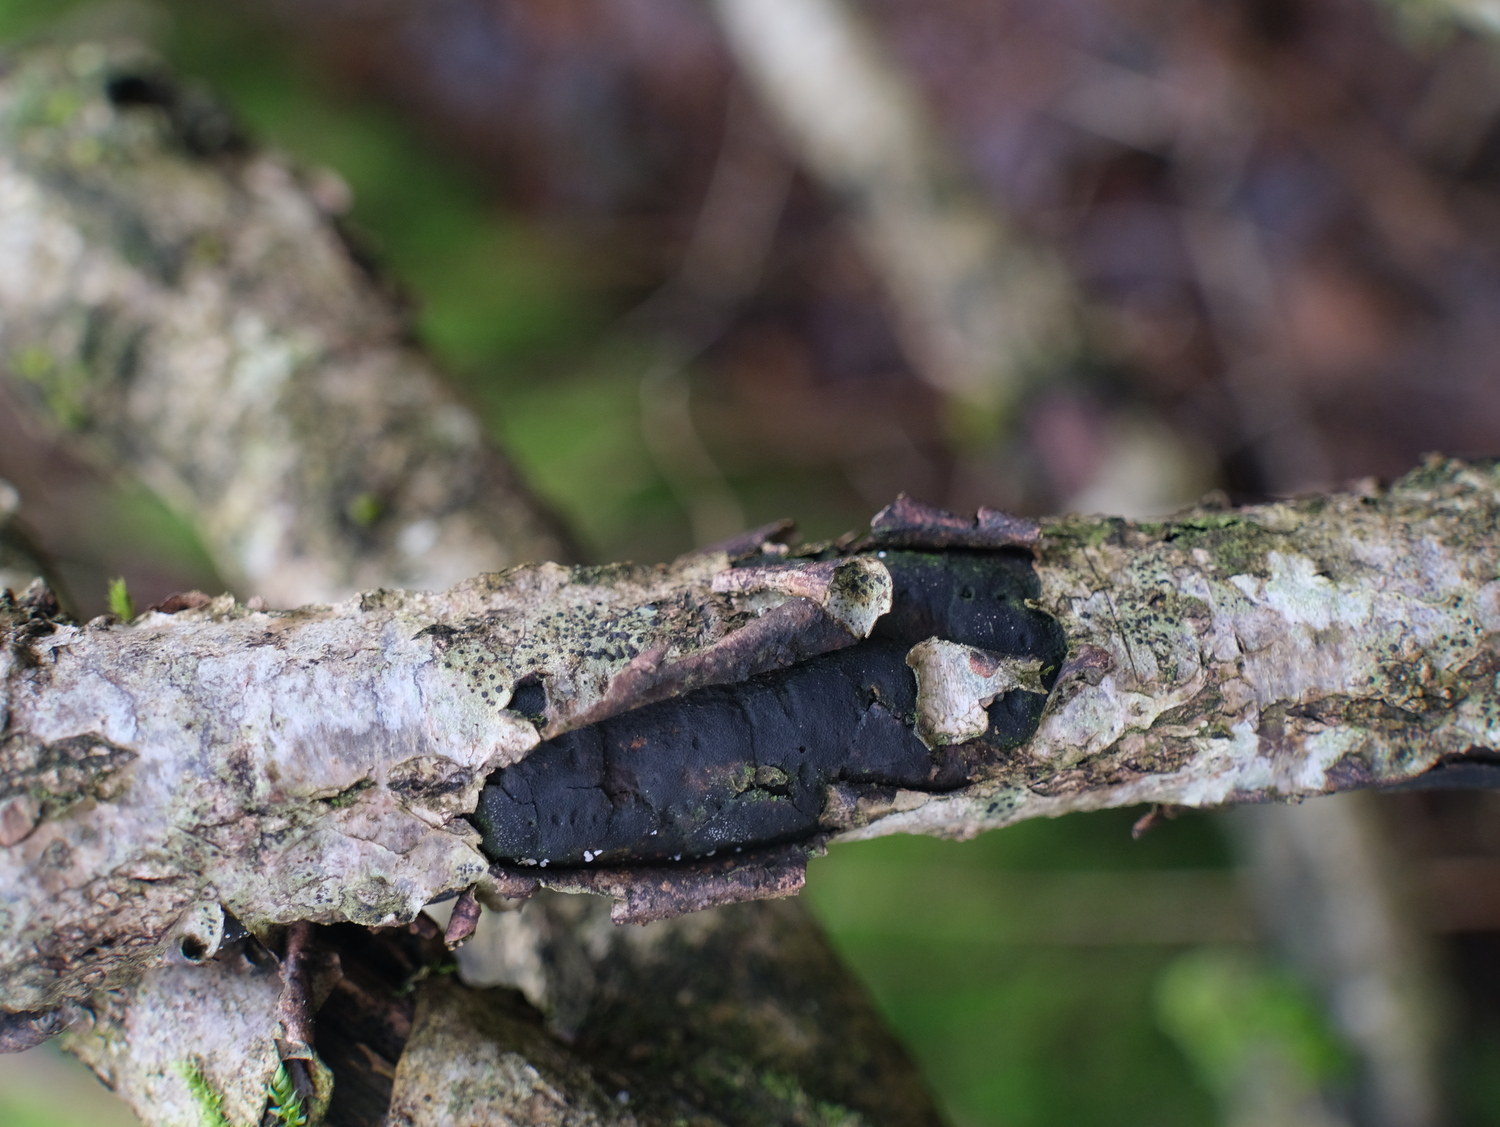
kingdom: Fungi
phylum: Ascomycota
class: Sordariomycetes
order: Xylariales
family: Diatrypaceae
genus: Diatrype
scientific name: Diatrype
